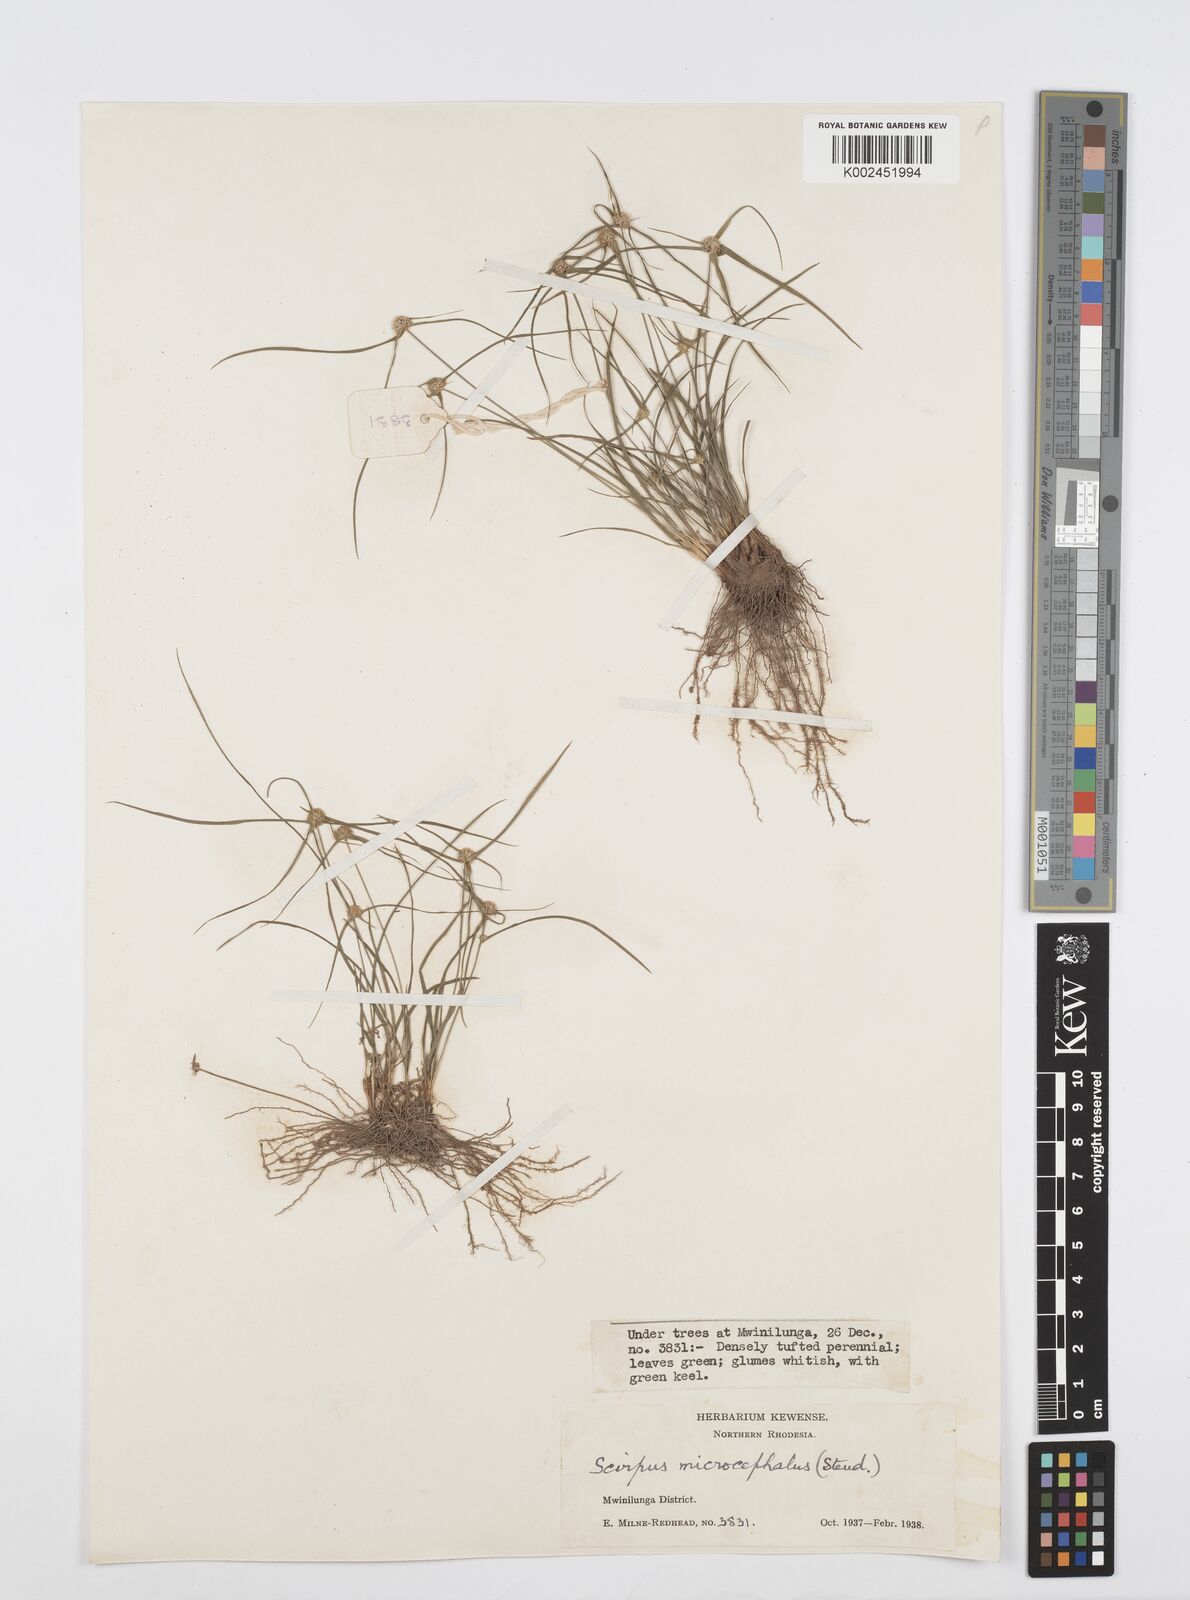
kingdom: Plantae
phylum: Tracheophyta
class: Liliopsida
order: Poales
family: Cyperaceae
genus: Cyperus
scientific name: Cyperus microcephalus
